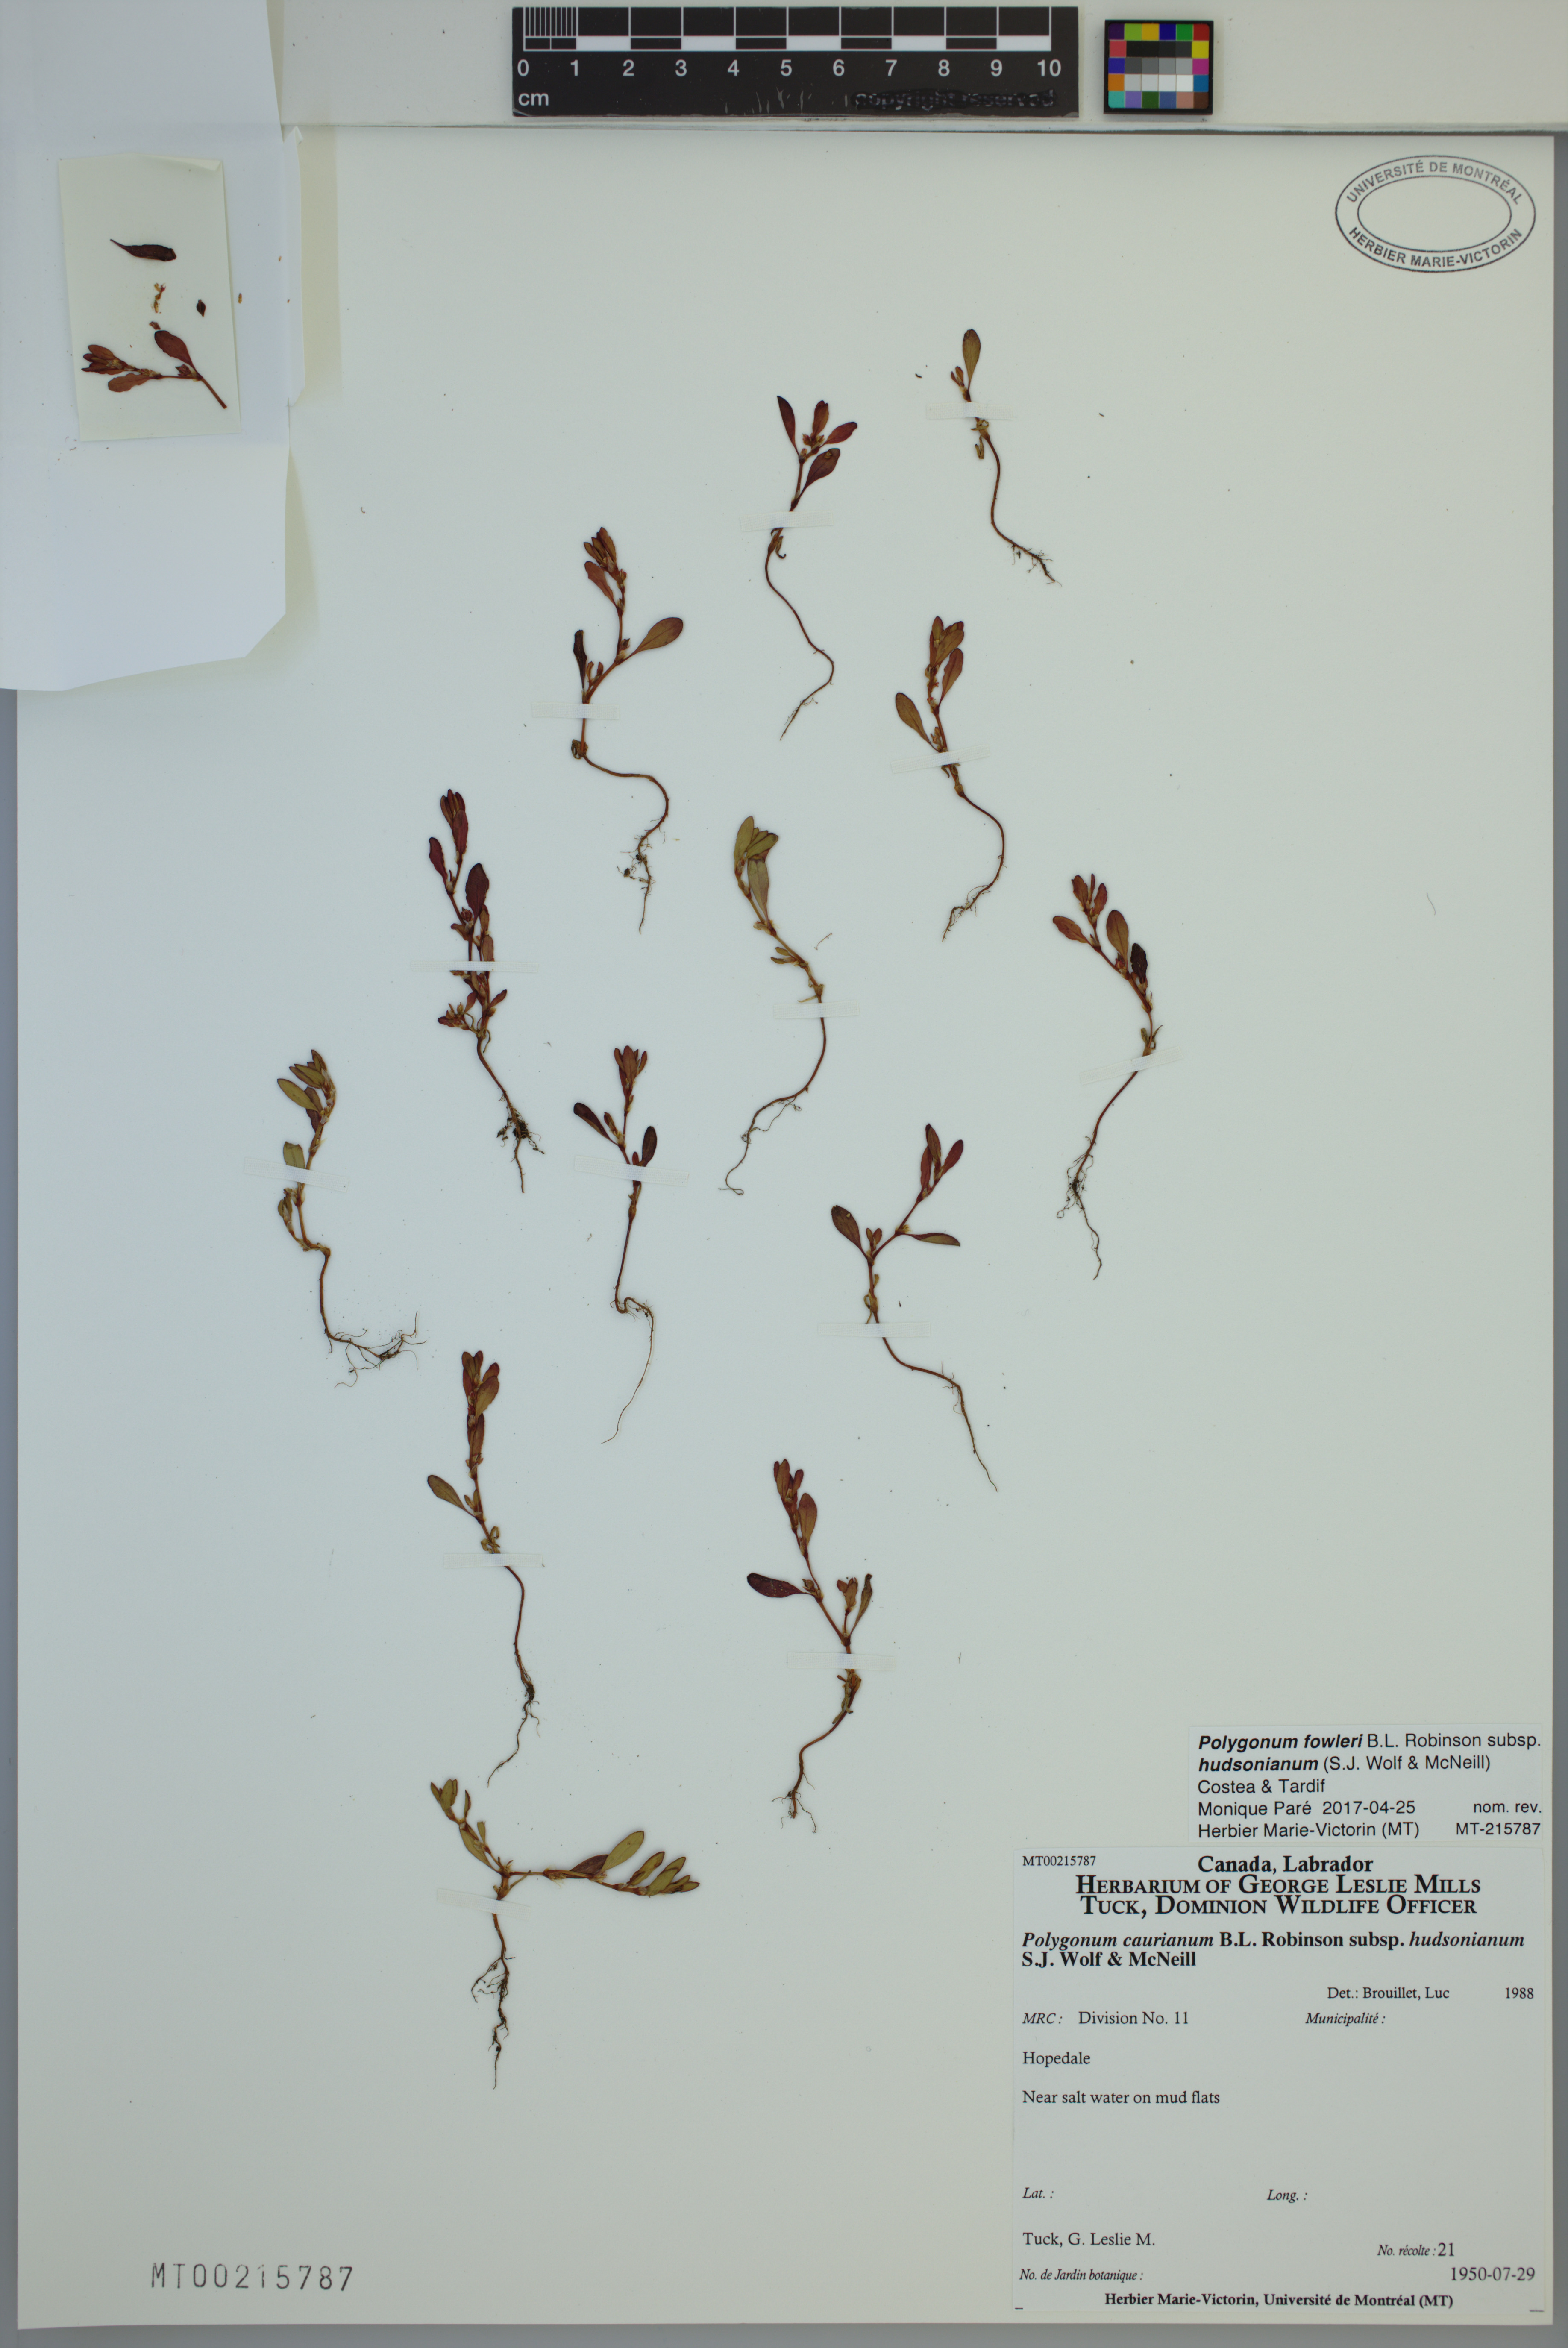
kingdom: Plantae
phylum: Tracheophyta
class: Magnoliopsida
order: Caryophyllales
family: Polygonaceae
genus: Polygonum
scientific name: Polygonum fowleri
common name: Fowler's knotweed
